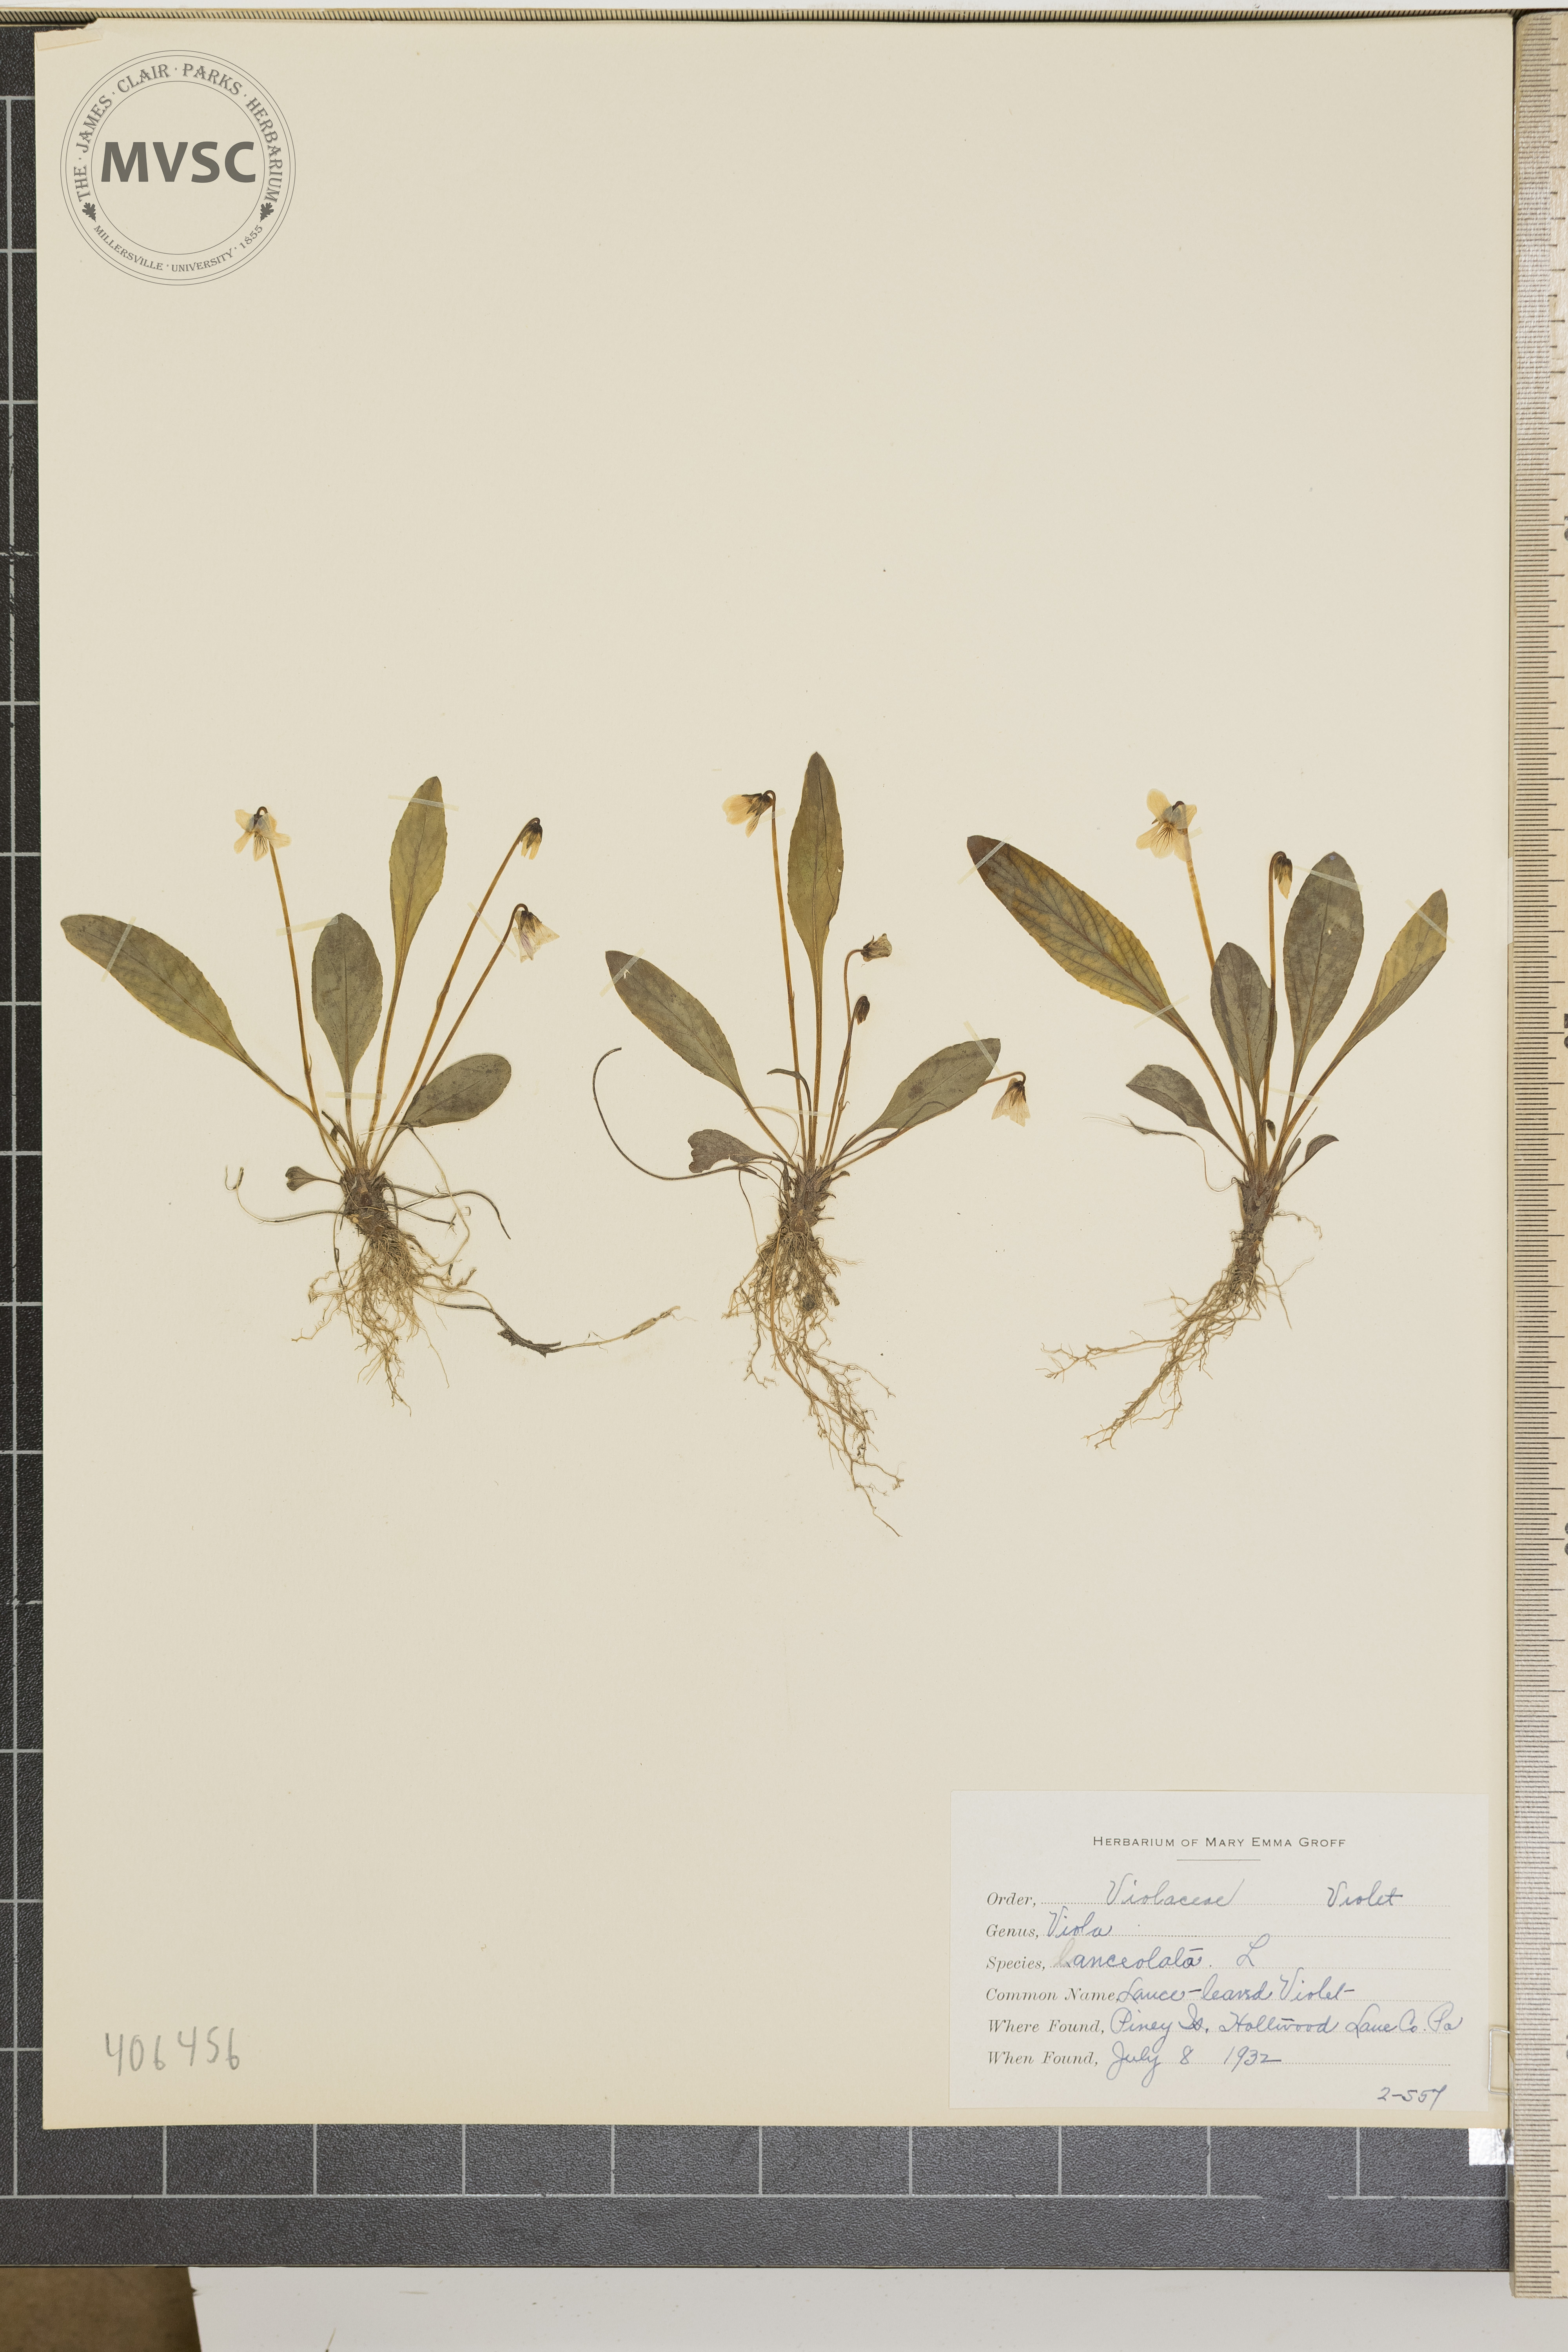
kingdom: Plantae
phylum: Tracheophyta
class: Magnoliopsida
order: Malpighiales
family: Violaceae
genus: Viola
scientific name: Viola lanceolata
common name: Lance-leaved violet
